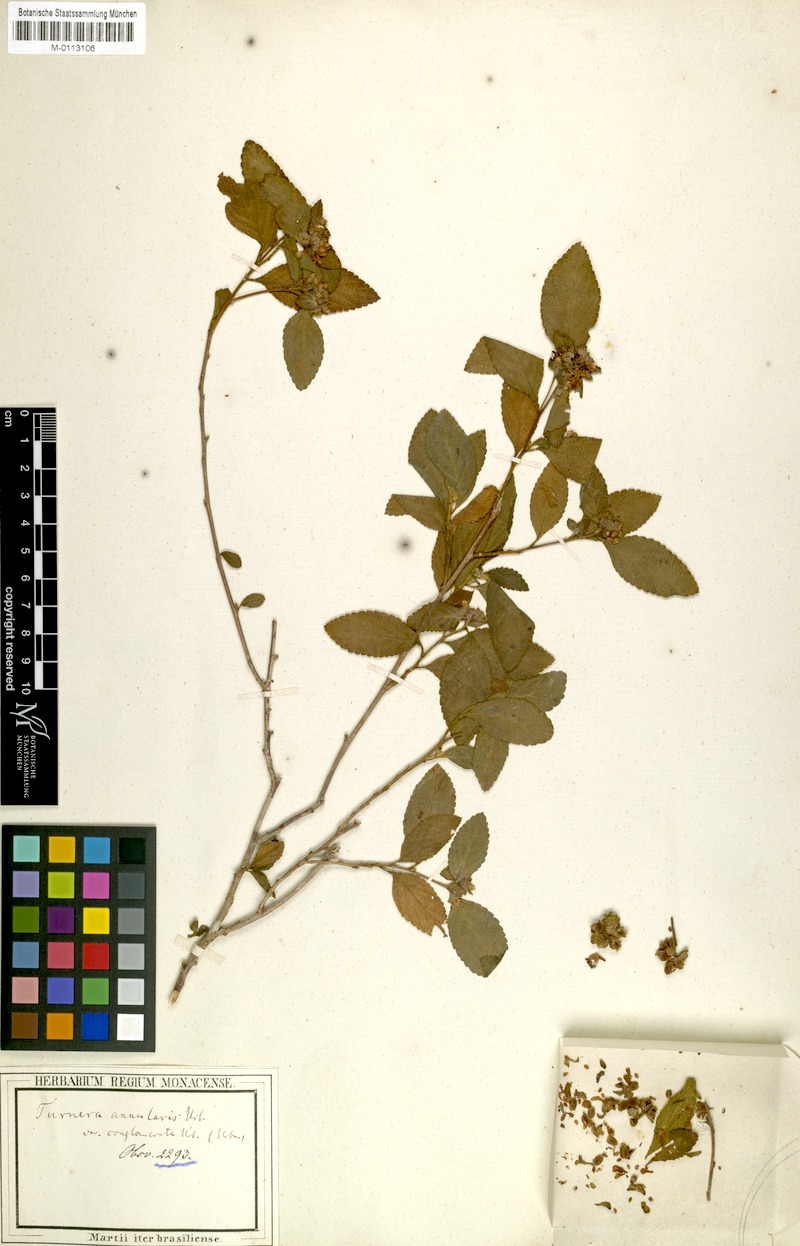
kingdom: Plantae
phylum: Tracheophyta
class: Magnoliopsida
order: Malpighiales
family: Turneraceae
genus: Oxossia
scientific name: Oxossia annularis
